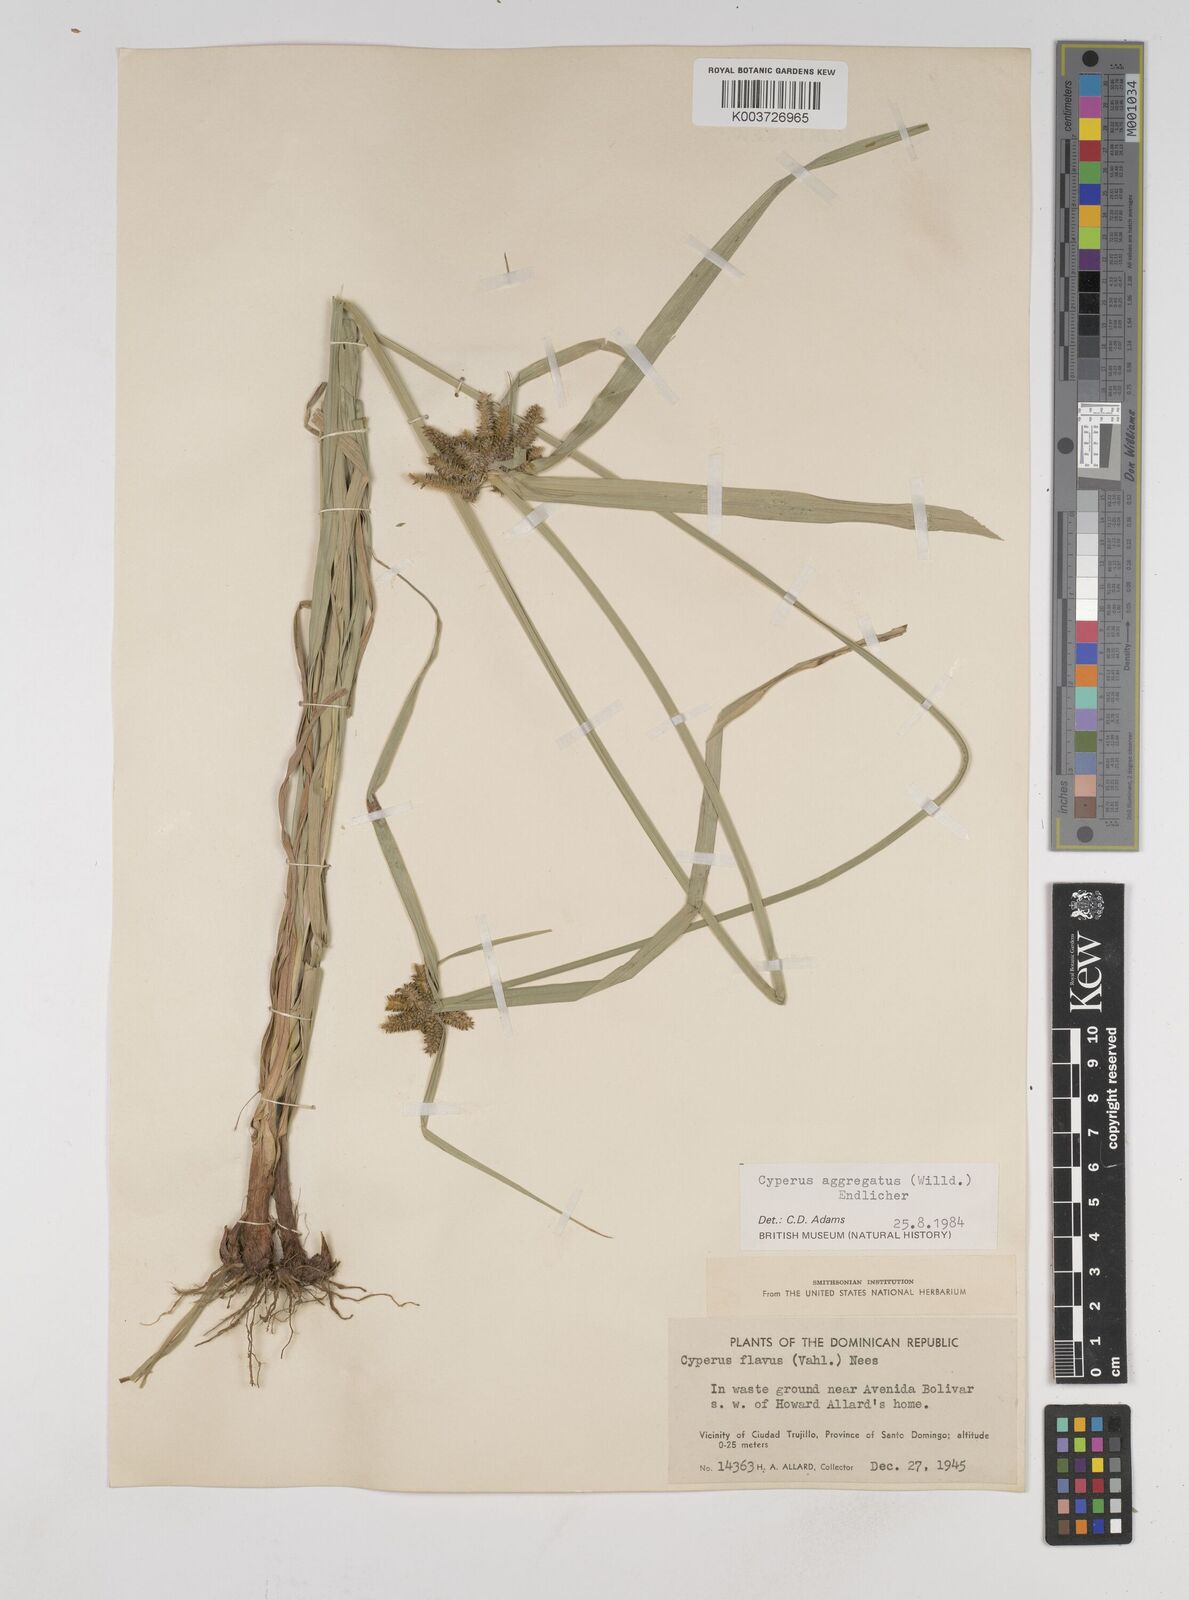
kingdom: Plantae
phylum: Tracheophyta
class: Liliopsida
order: Poales
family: Cyperaceae
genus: Cyperus
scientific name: Cyperus aggregatus
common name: Inflatedscale flatsedge
